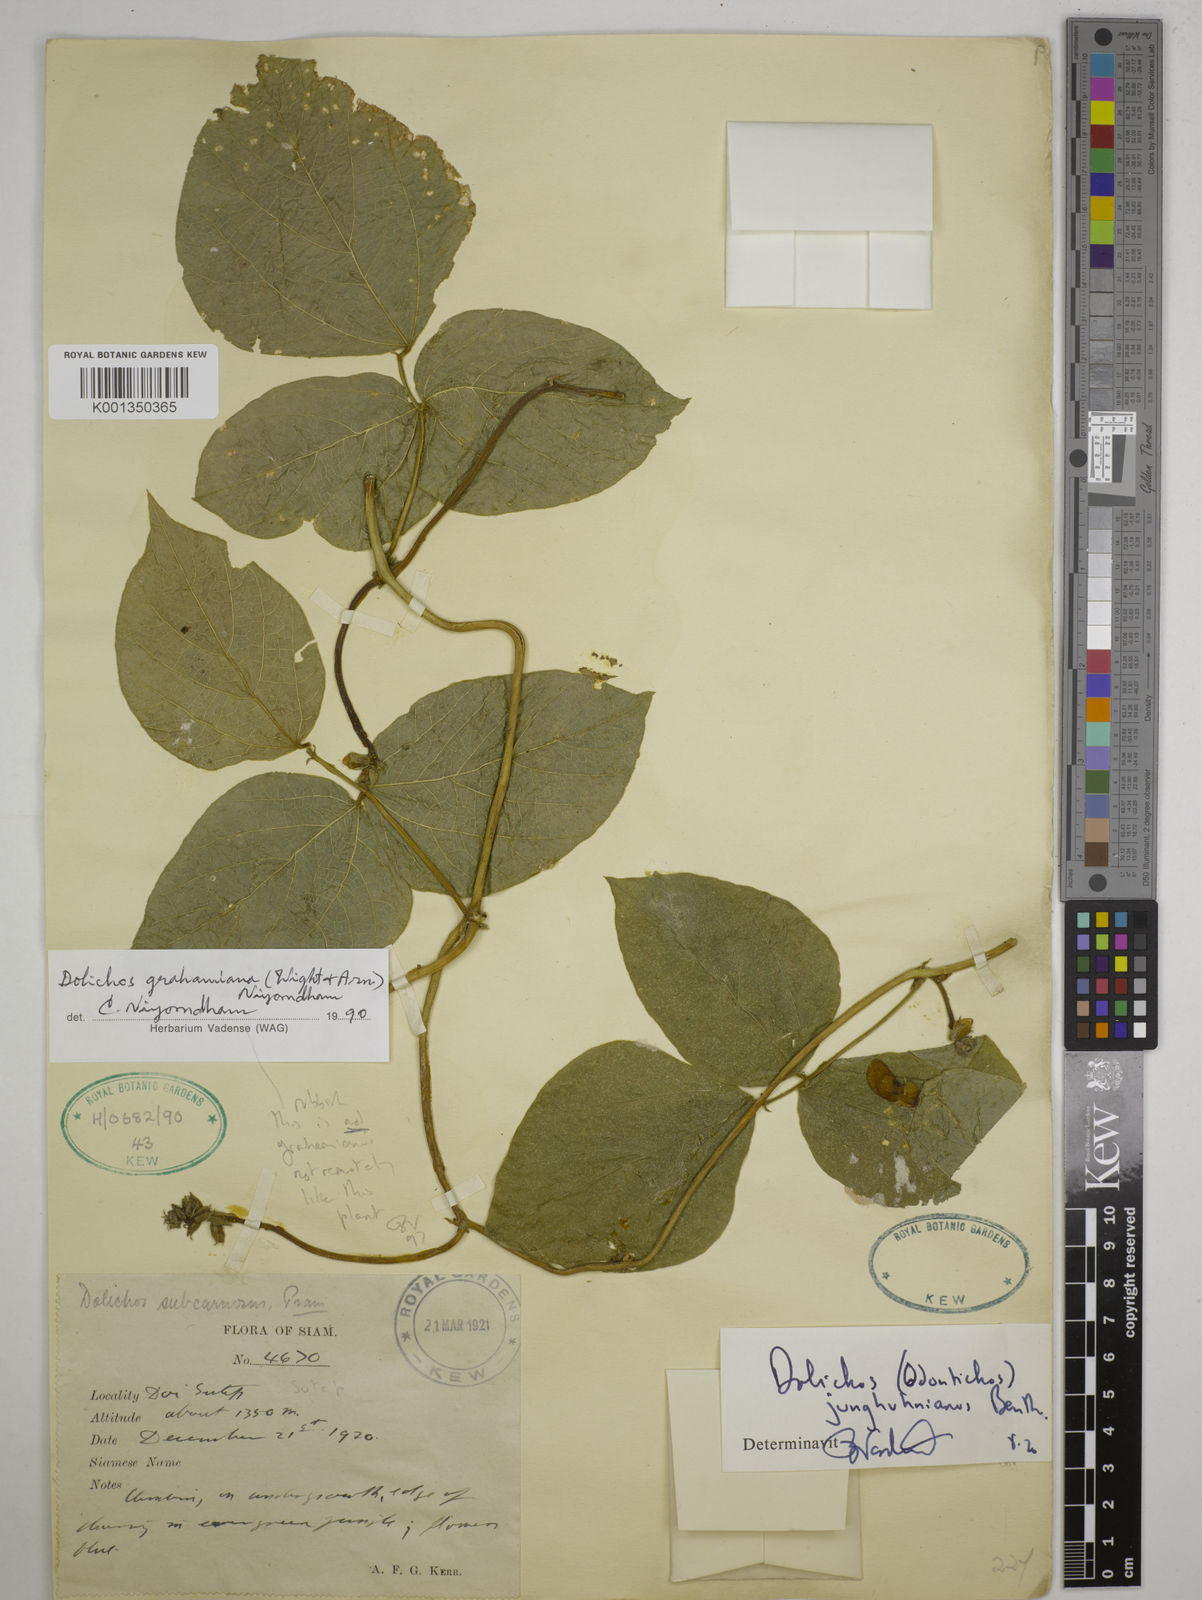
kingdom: Plantae
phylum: Tracheophyta
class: Magnoliopsida
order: Fabales
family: Fabaceae
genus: Wajira
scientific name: Wajira grahamiana
